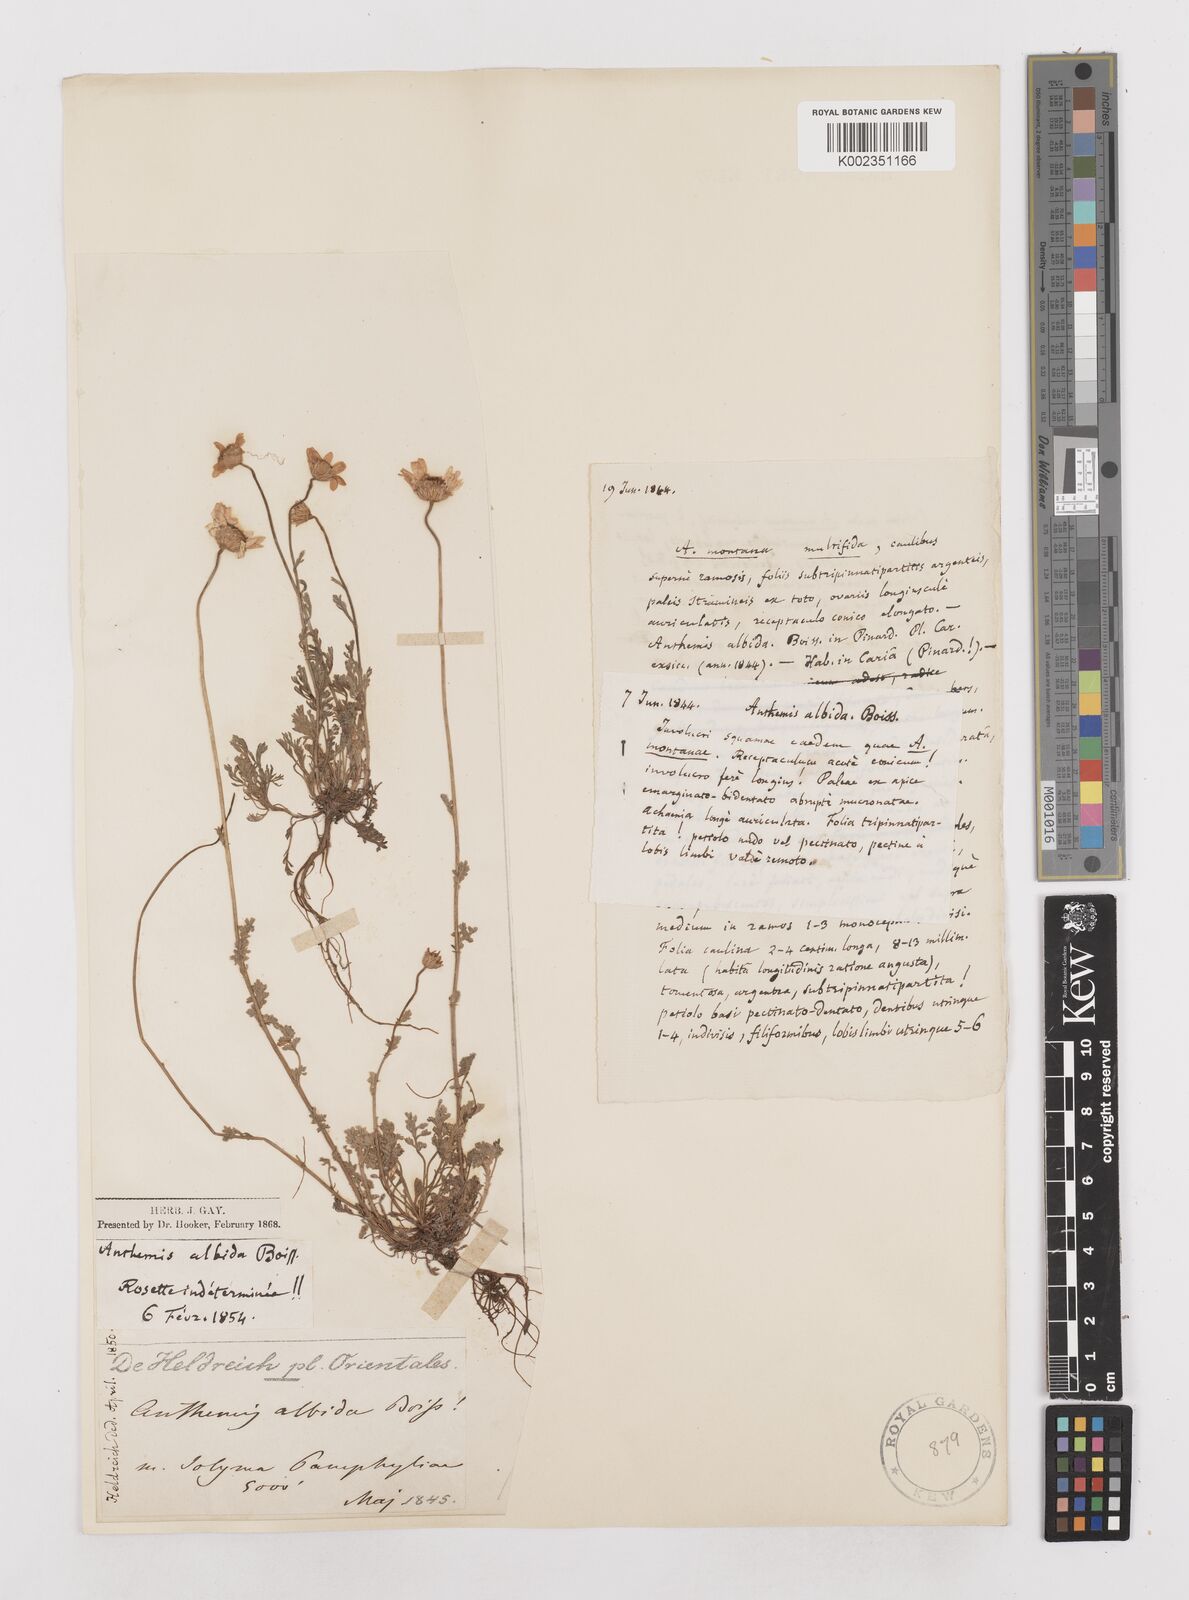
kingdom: Plantae
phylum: Tracheophyta
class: Magnoliopsida
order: Asterales
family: Asteraceae
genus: Anthemis
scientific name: Anthemis cretica
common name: Mountain dog-daisy
